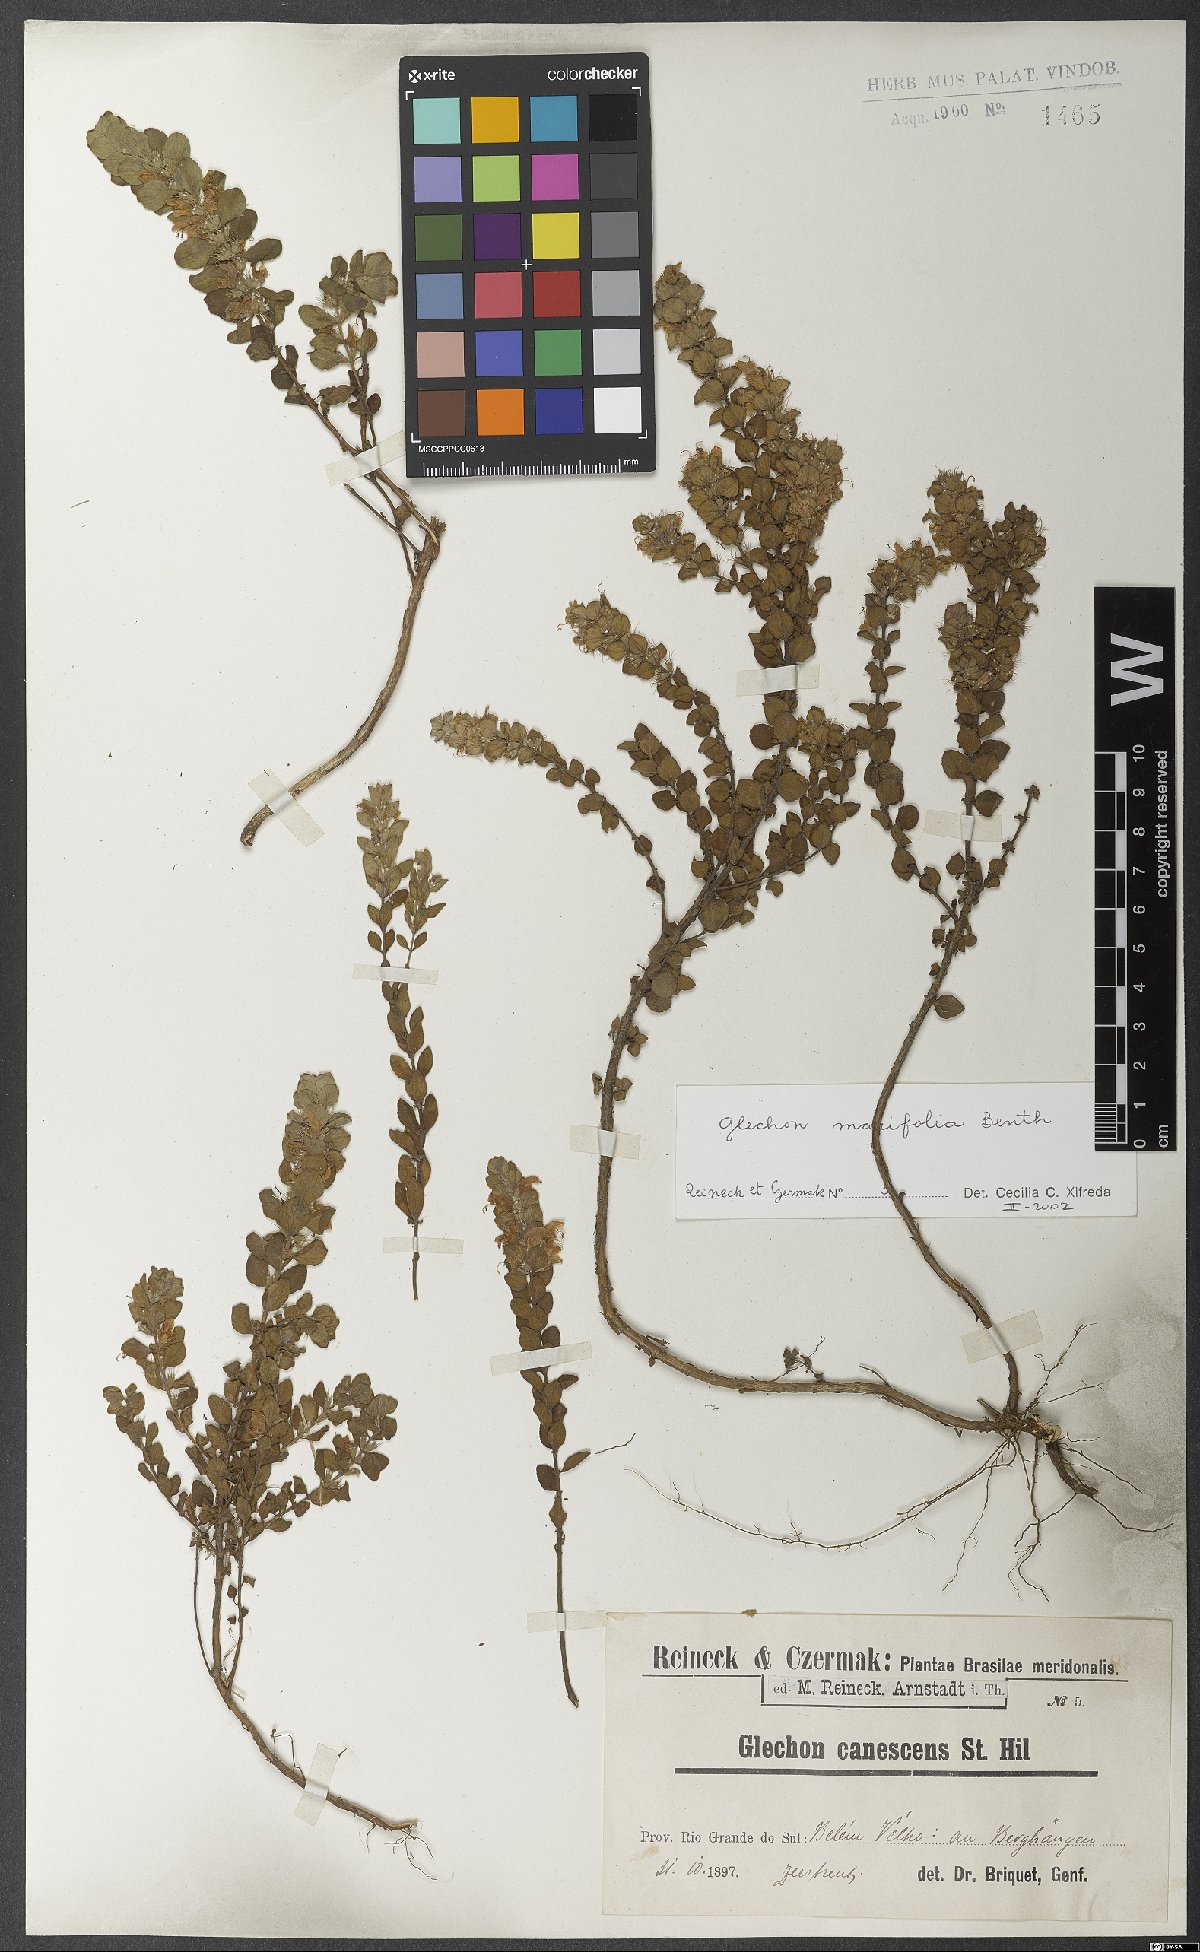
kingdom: Plantae
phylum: Tracheophyta
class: Magnoliopsida
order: Lamiales
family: Lamiaceae
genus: Glechon
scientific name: Glechon marifolia
